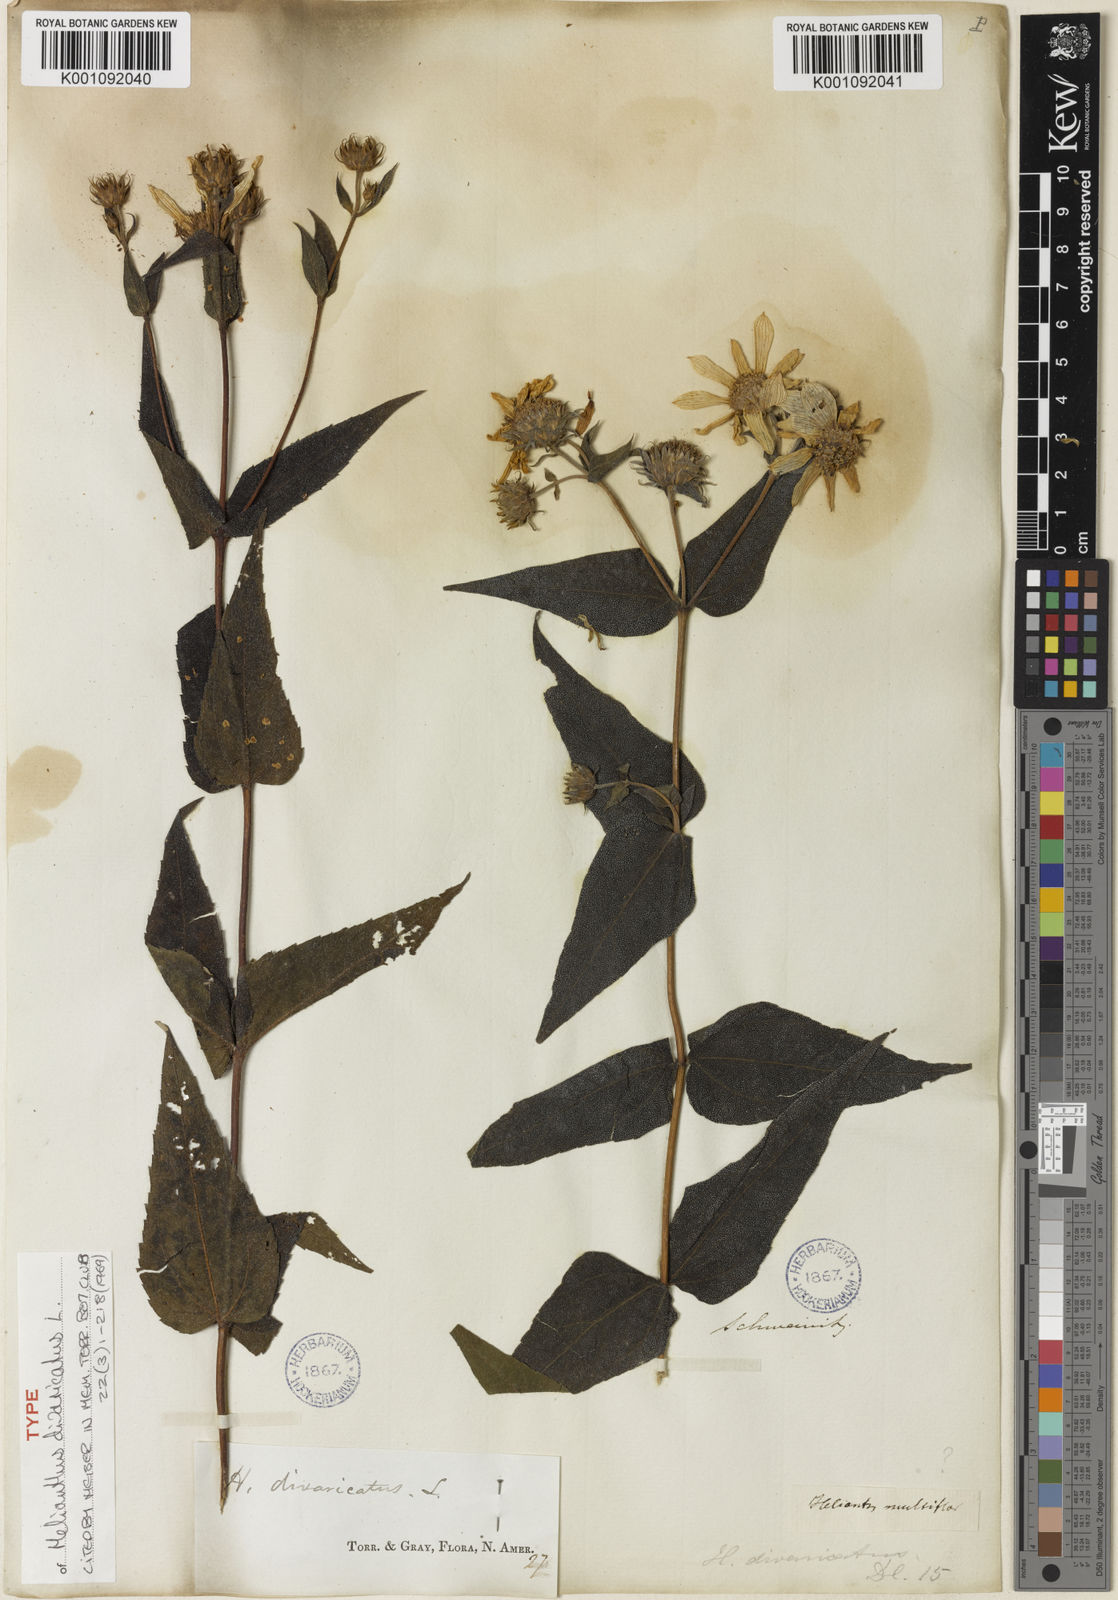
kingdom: Plantae
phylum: Tracheophyta
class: Magnoliopsida
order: Asterales
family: Asteraceae
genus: Helianthus
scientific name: Helianthus divaricatus
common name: Divergent sunflower
